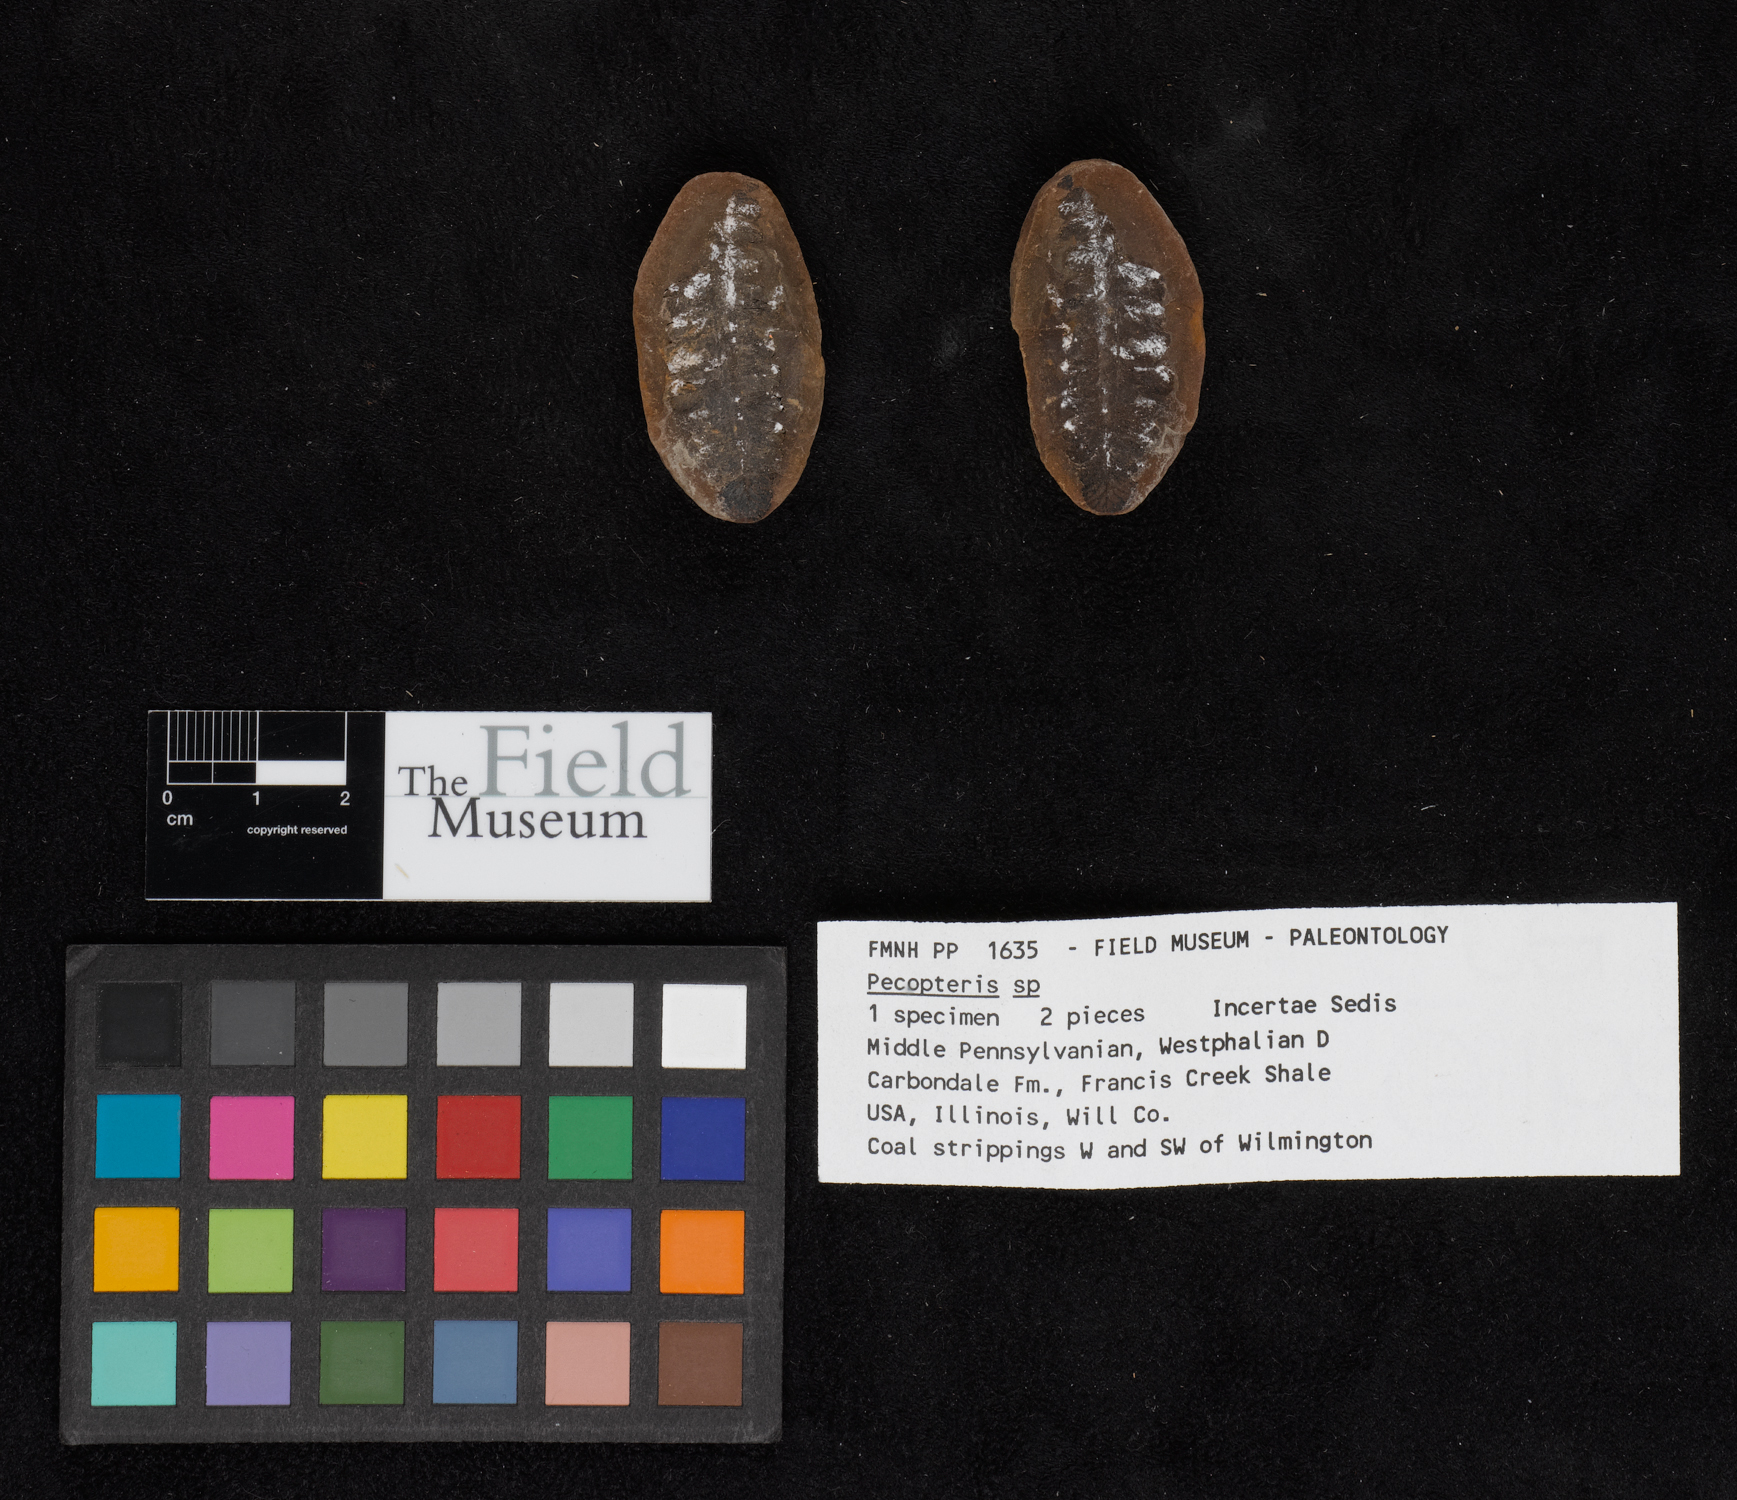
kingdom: Plantae
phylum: Tracheophyta
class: Polypodiopsida
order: Marattiales
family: Asterothecaceae
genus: Pecopteris
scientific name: Pecopteris
